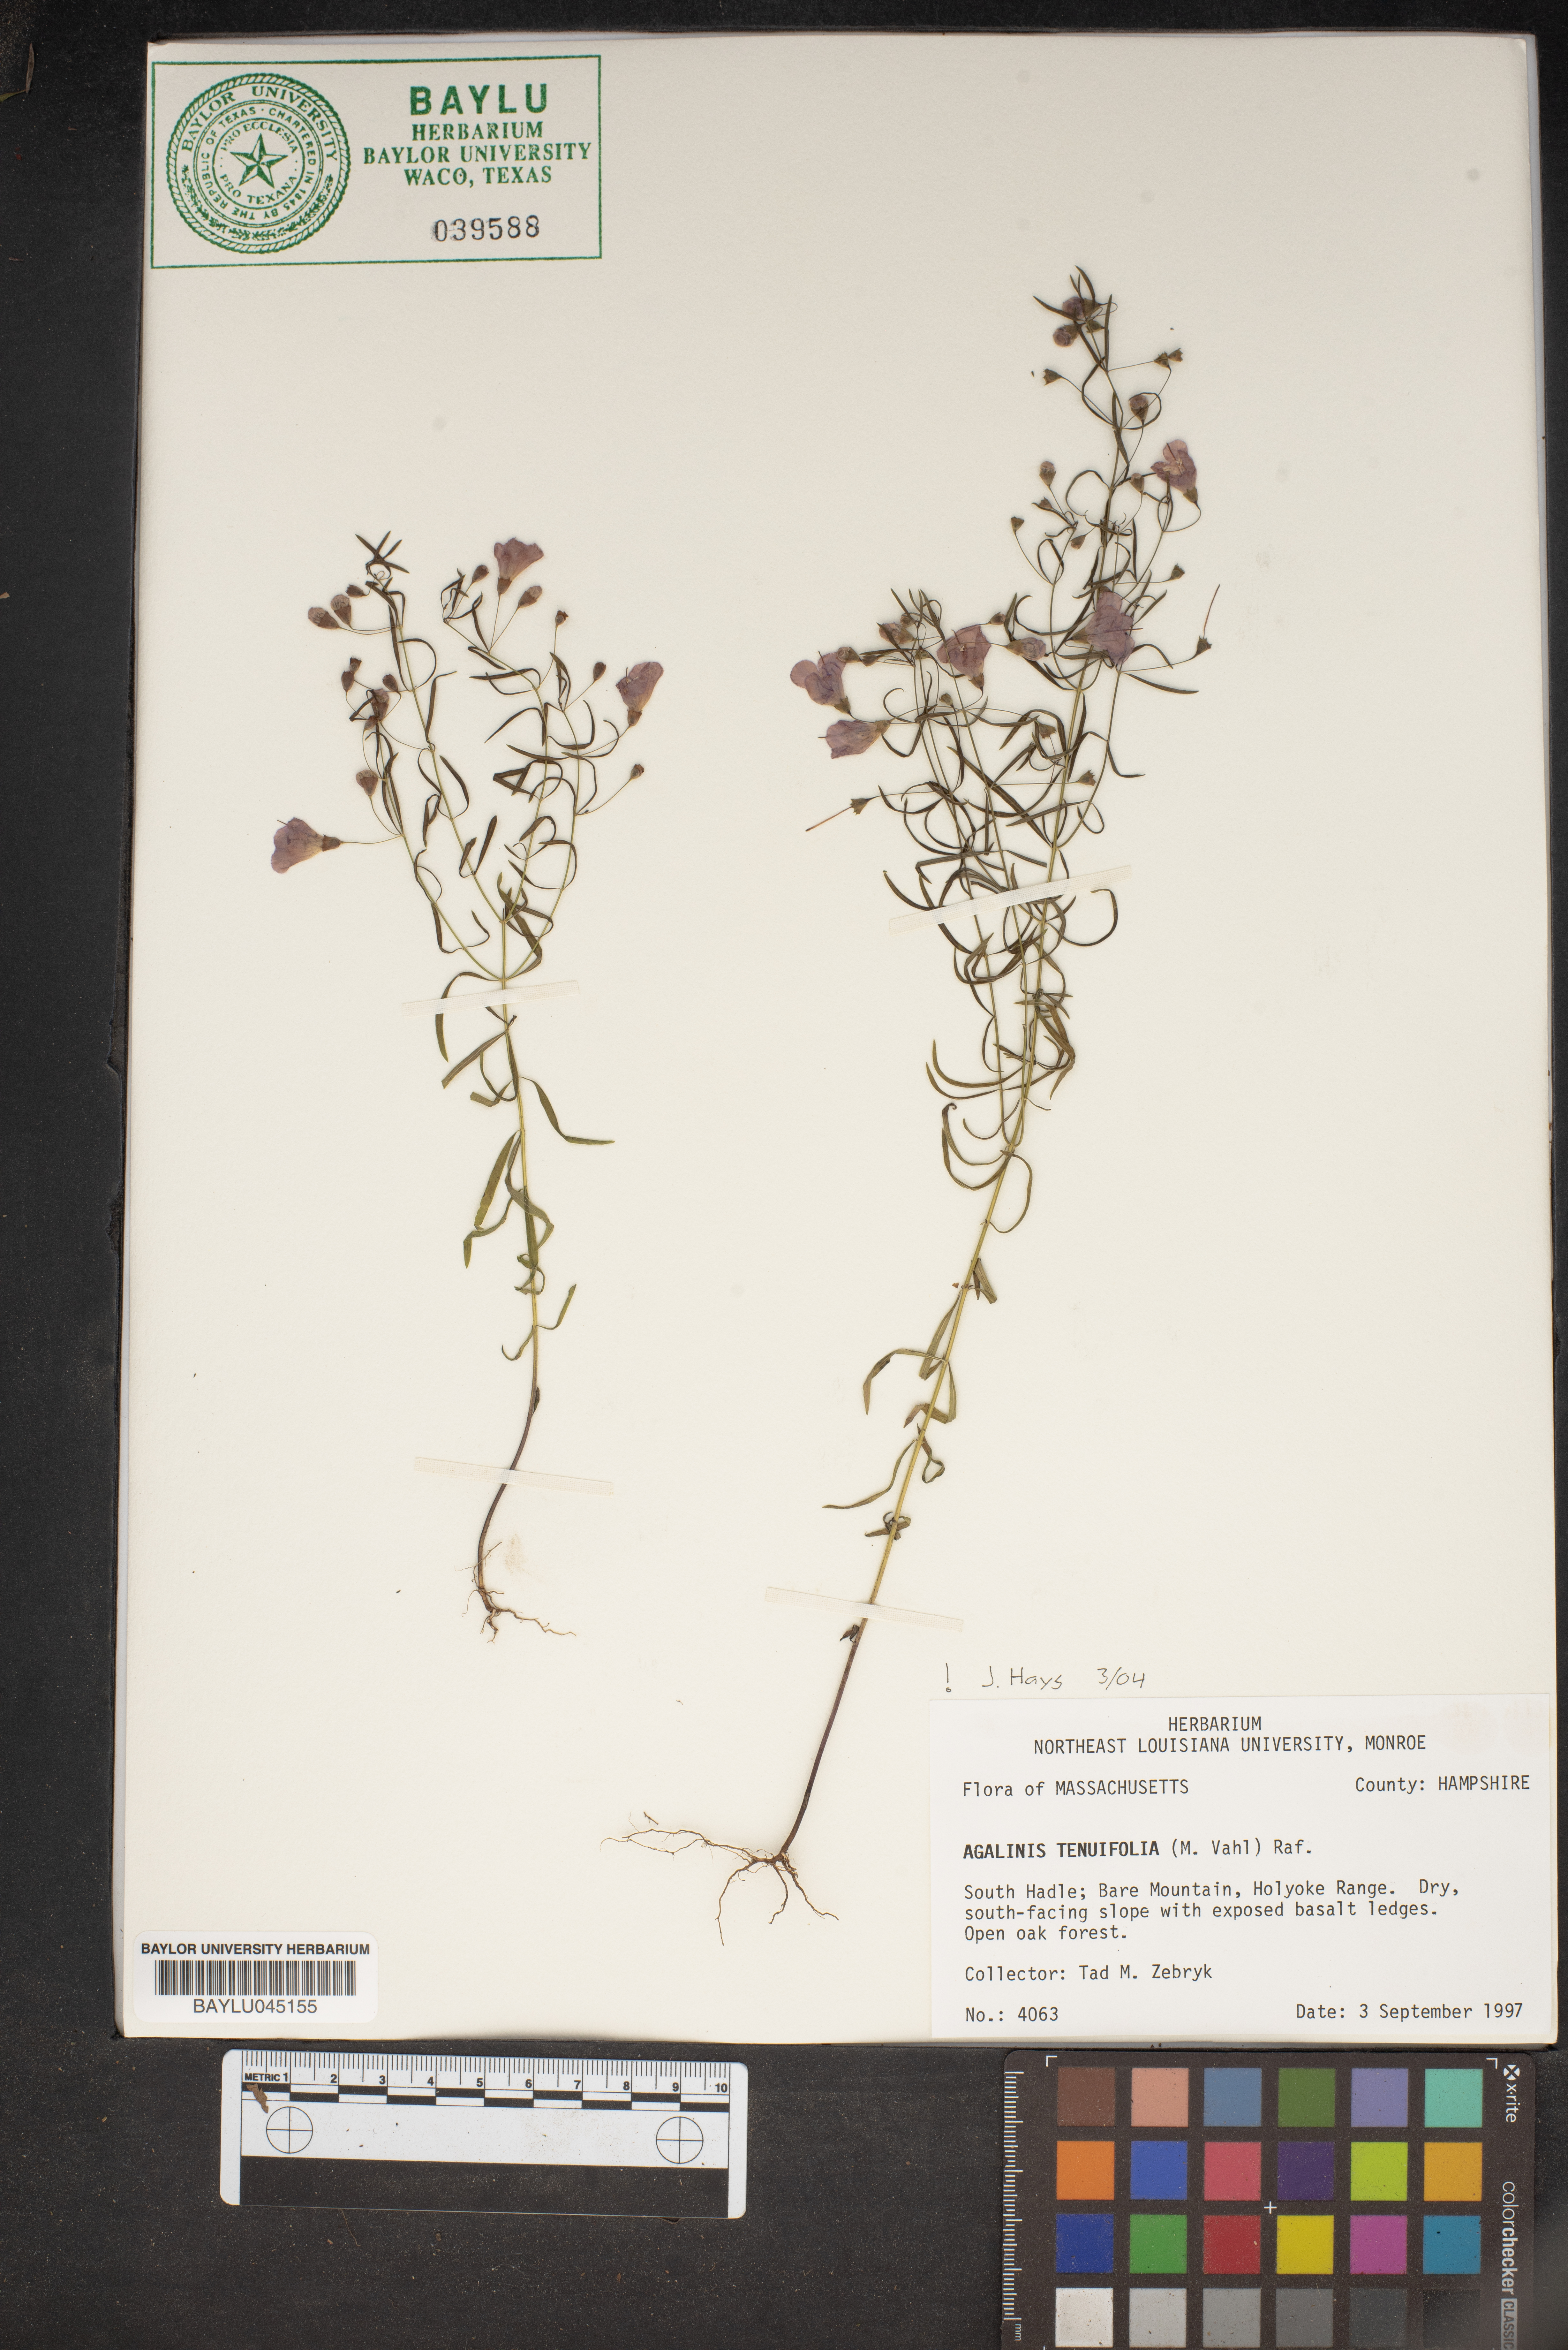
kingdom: Plantae
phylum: Tracheophyta
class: Magnoliopsida
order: Lamiales
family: Orobanchaceae
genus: Agalinis
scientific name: Agalinis tenuifolia
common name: Slender agalinis
